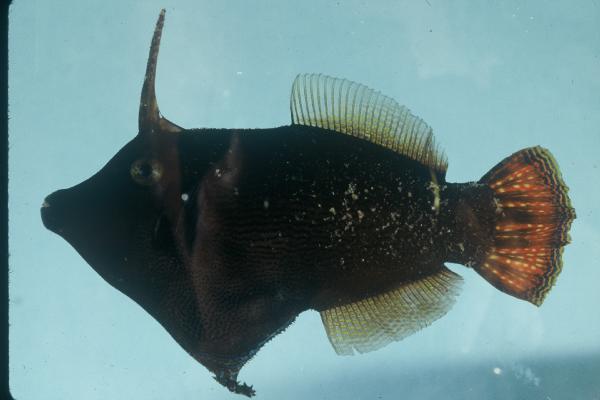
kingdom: Animalia
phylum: Chordata
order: Tetraodontiformes
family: Monacanthidae
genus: Pervagor
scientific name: Pervagor janthinosoma
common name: Blackbar filefish
